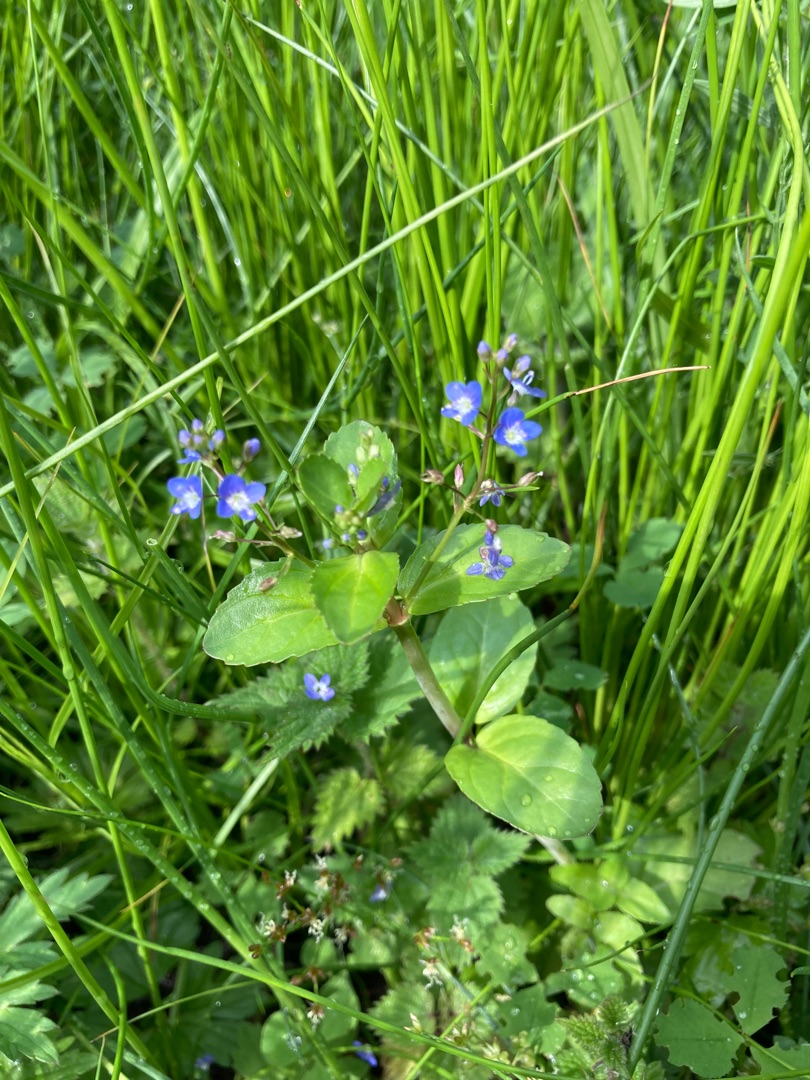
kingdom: Plantae
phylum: Tracheophyta
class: Magnoliopsida
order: Lamiales
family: Plantaginaceae
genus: Veronica
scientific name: Veronica beccabunga
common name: Tykbladet ærenpris
